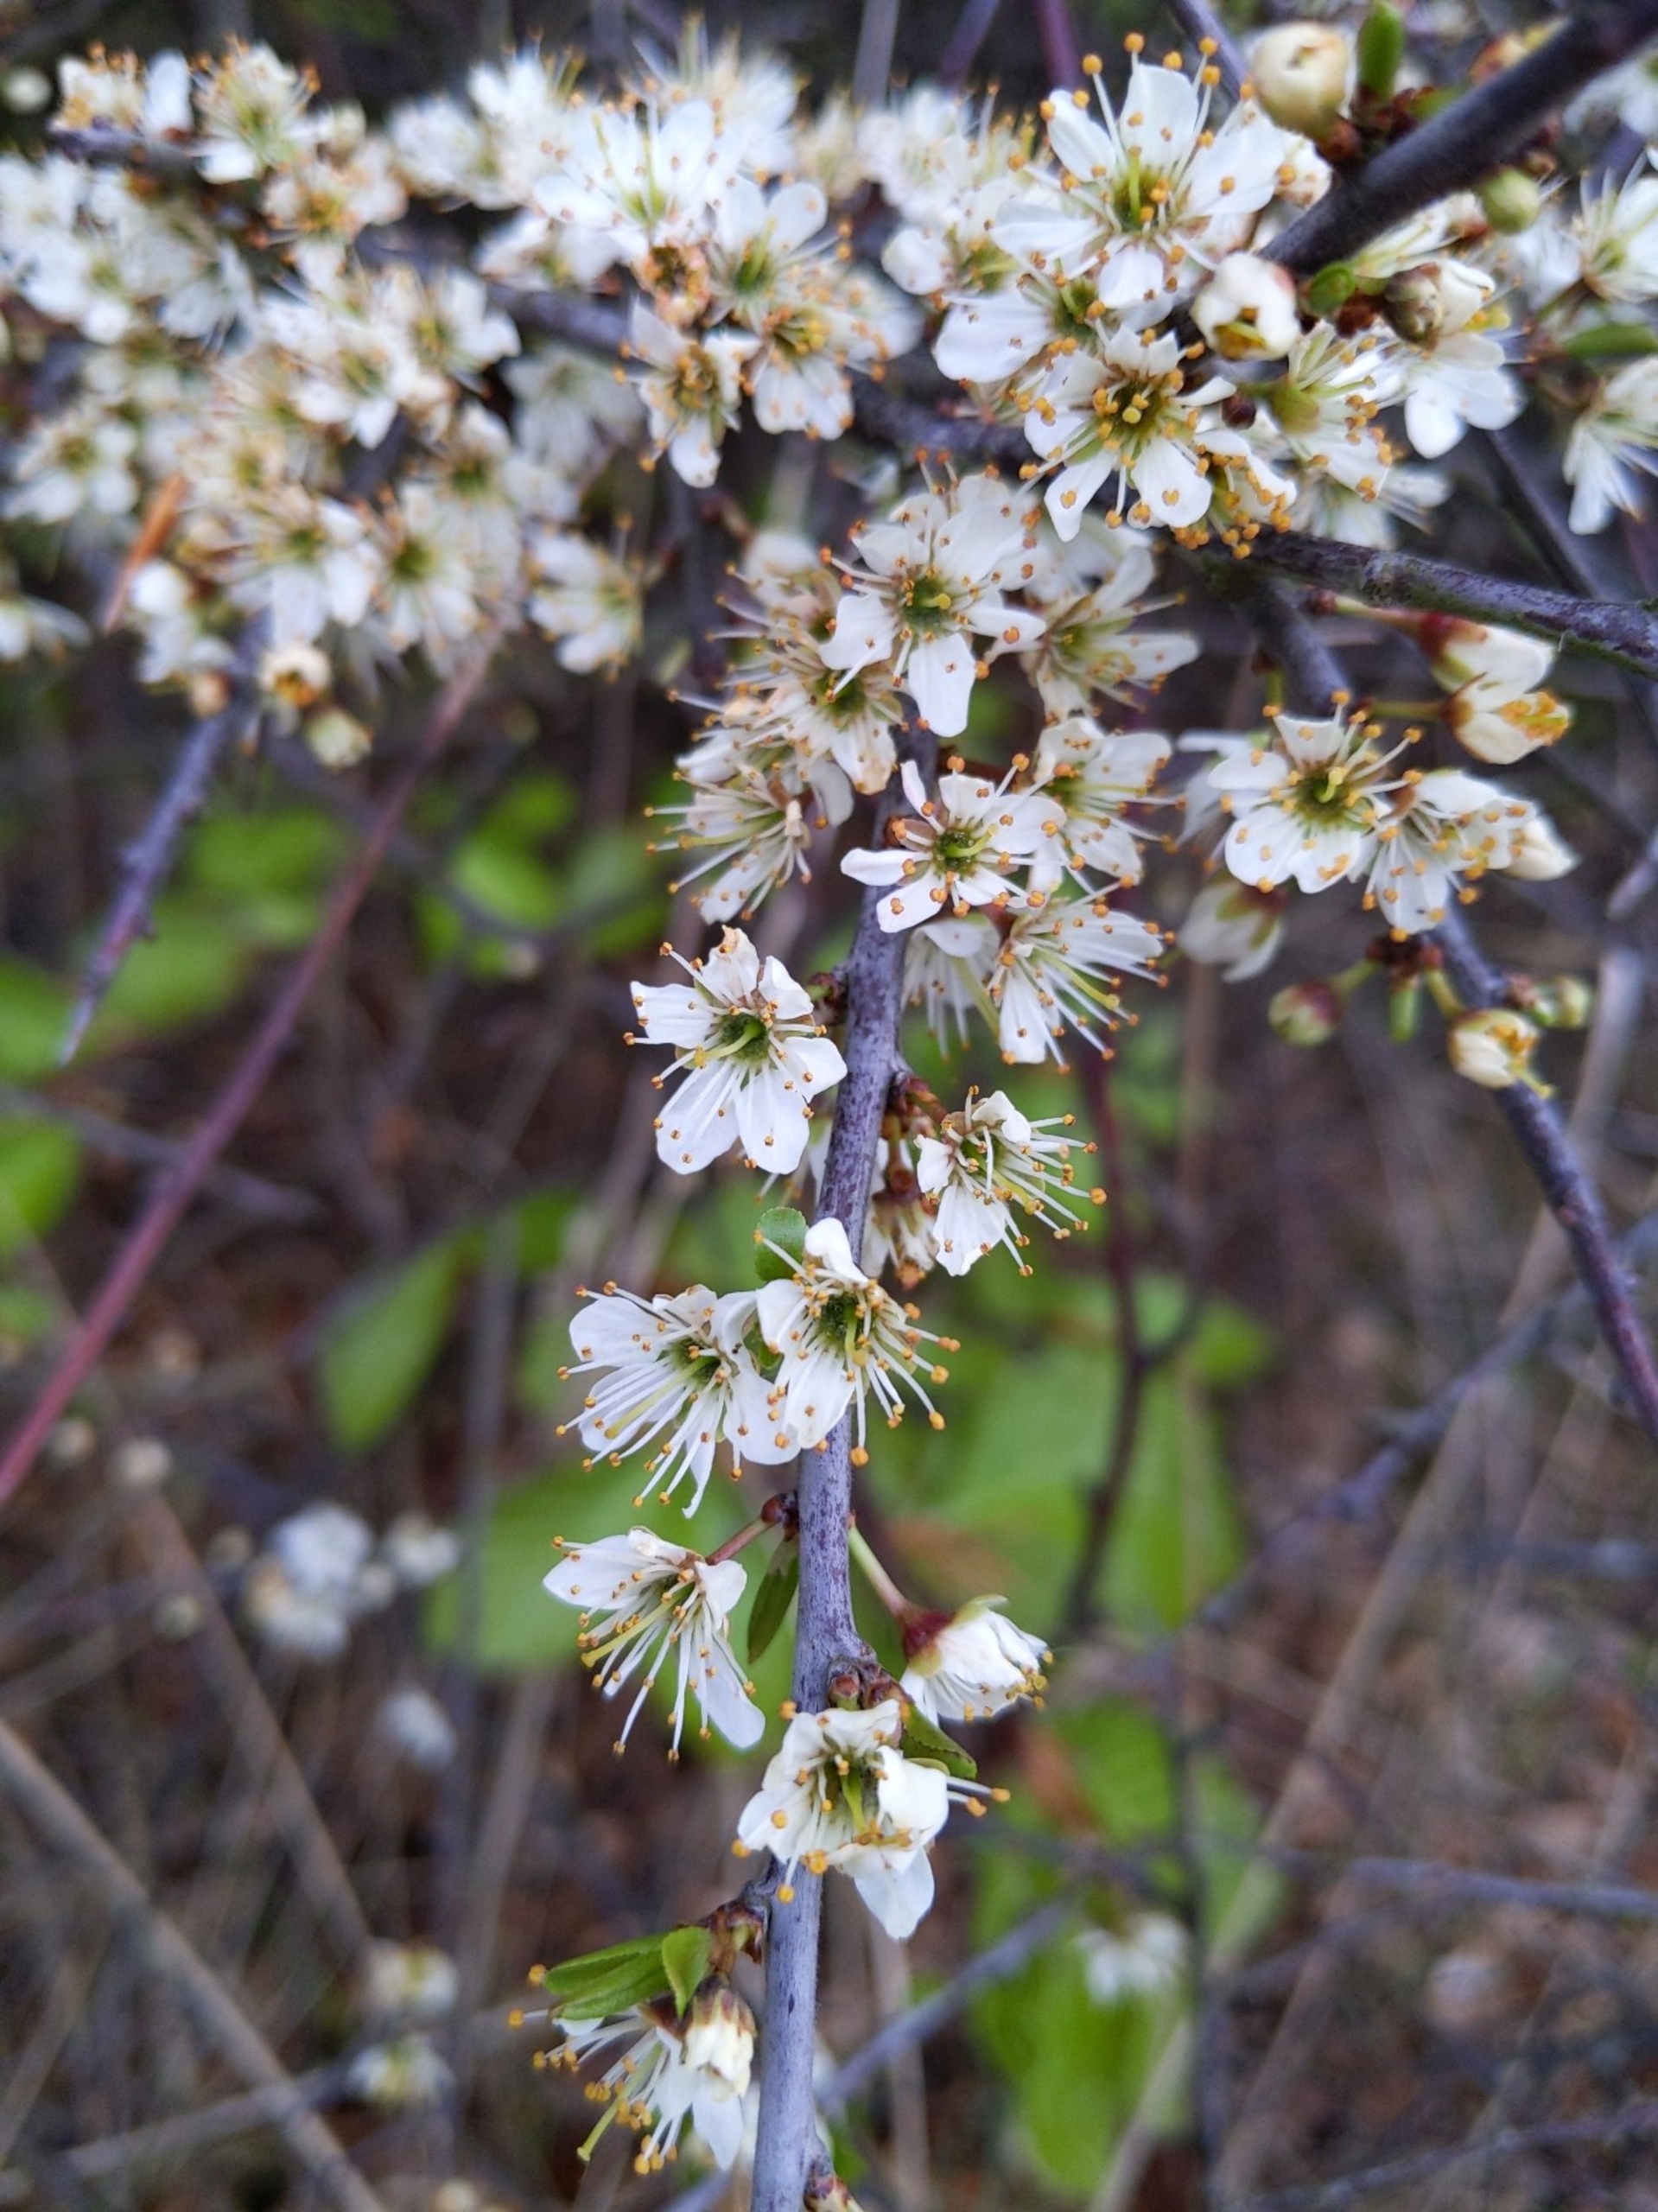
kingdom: Plantae
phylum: Tracheophyta
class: Magnoliopsida
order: Rosales
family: Rosaceae
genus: Prunus
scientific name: Prunus spinosa
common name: Slåen
